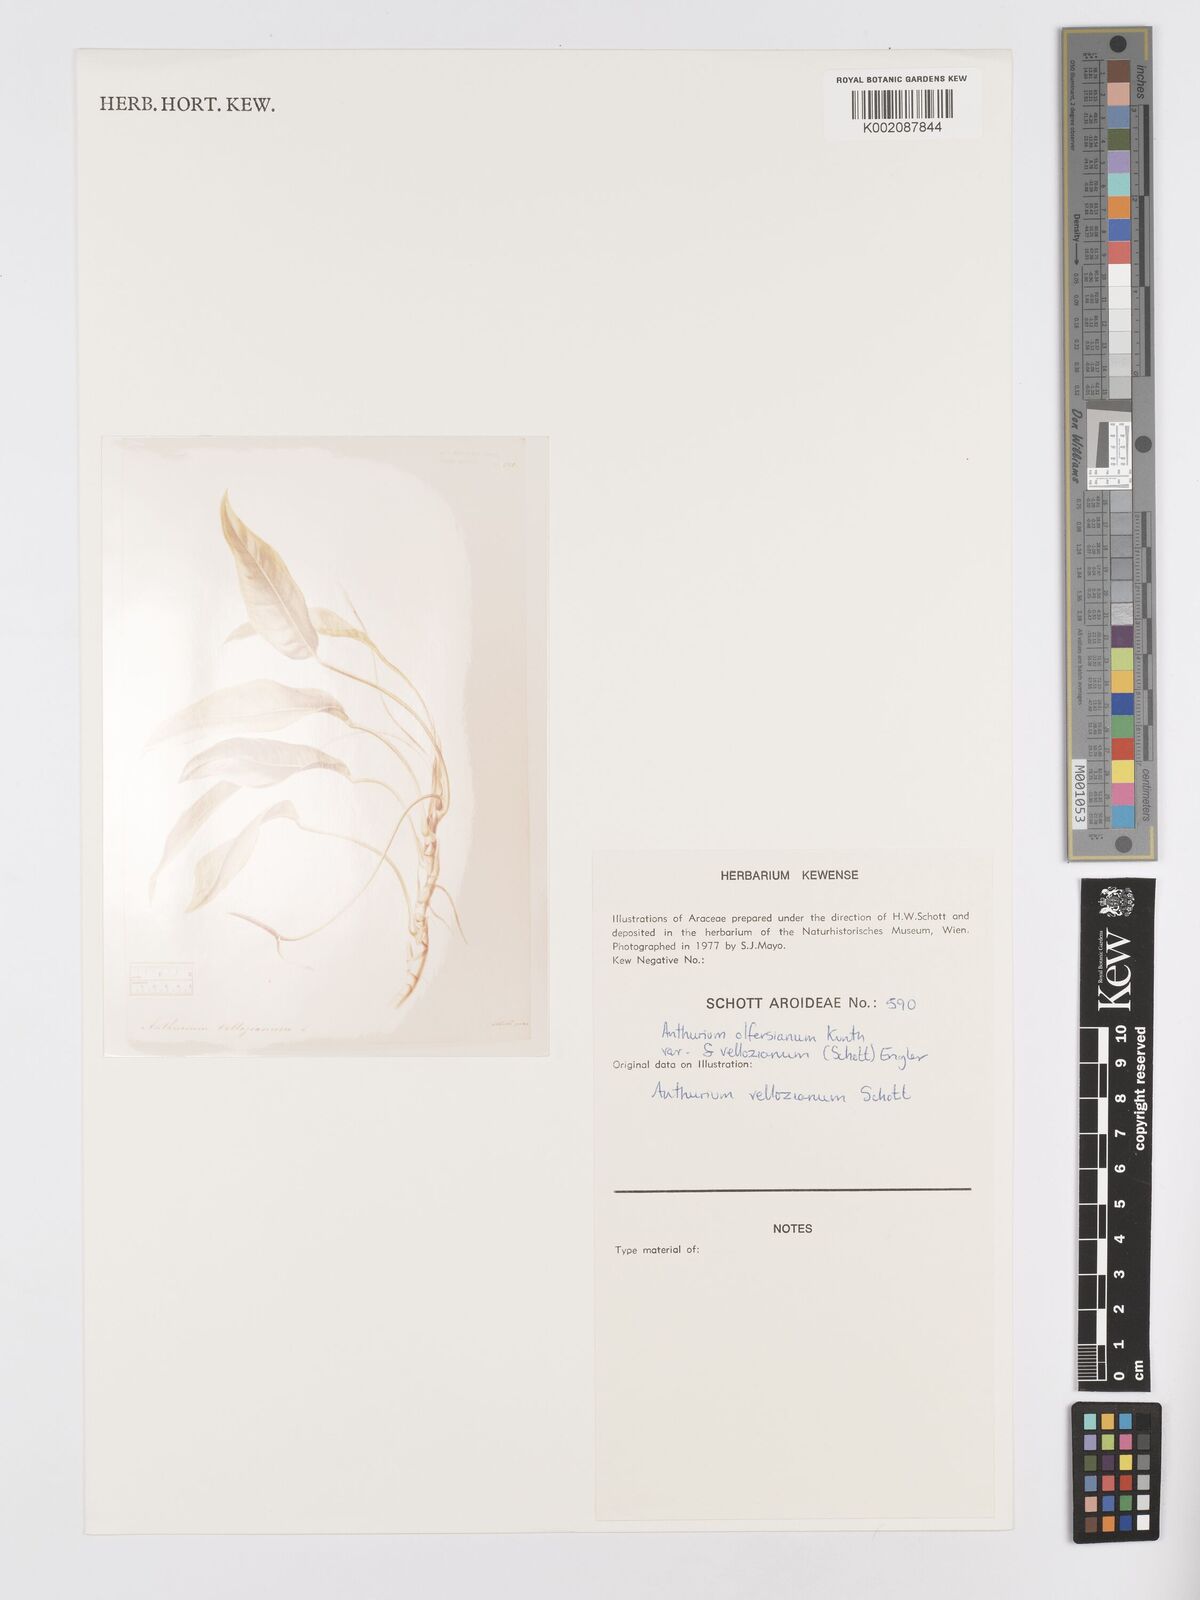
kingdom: Plantae
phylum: Tracheophyta
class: Liliopsida
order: Alismatales
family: Araceae
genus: Anthurium
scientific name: Anthurium parasiticum
